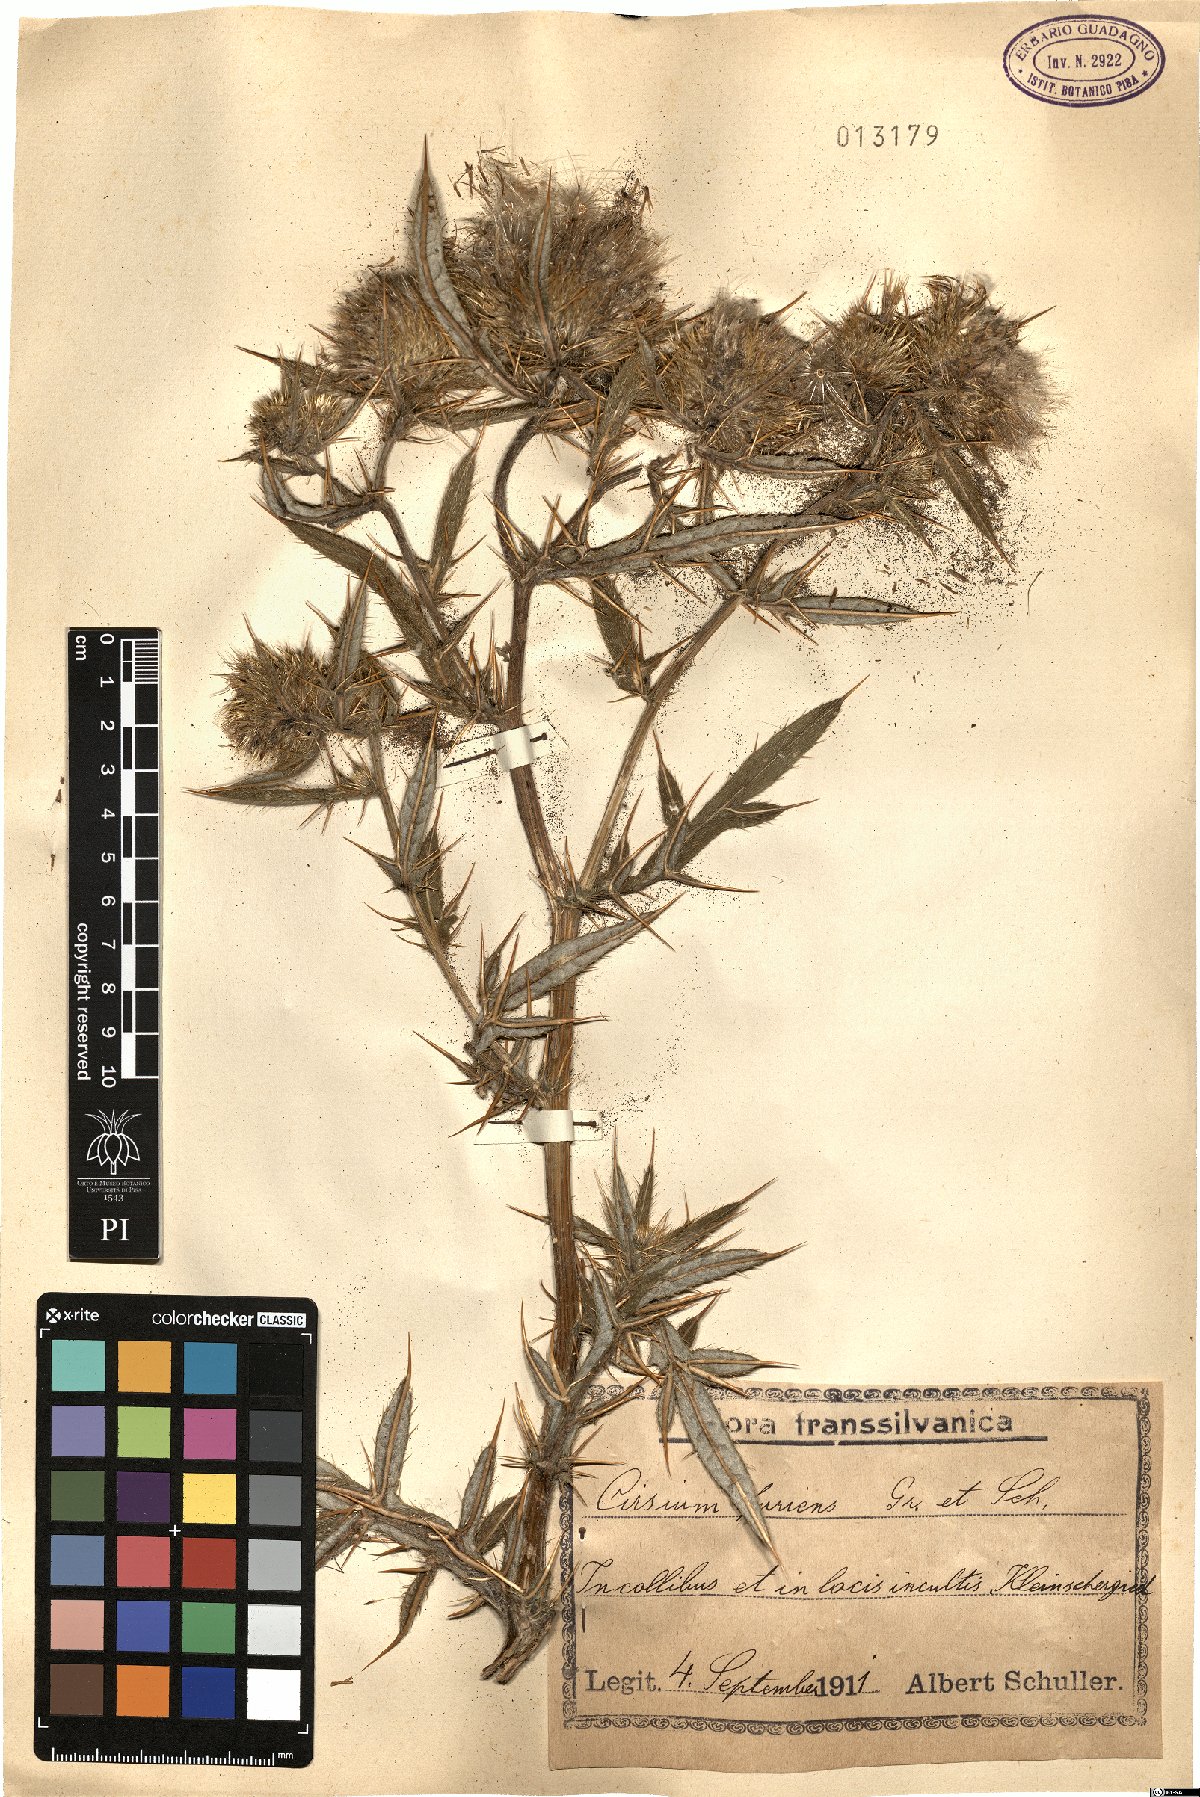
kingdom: Plantae
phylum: Tracheophyta
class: Magnoliopsida
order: Asterales
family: Asteraceae
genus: Lophiolepis
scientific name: Lophiolepis furiens
